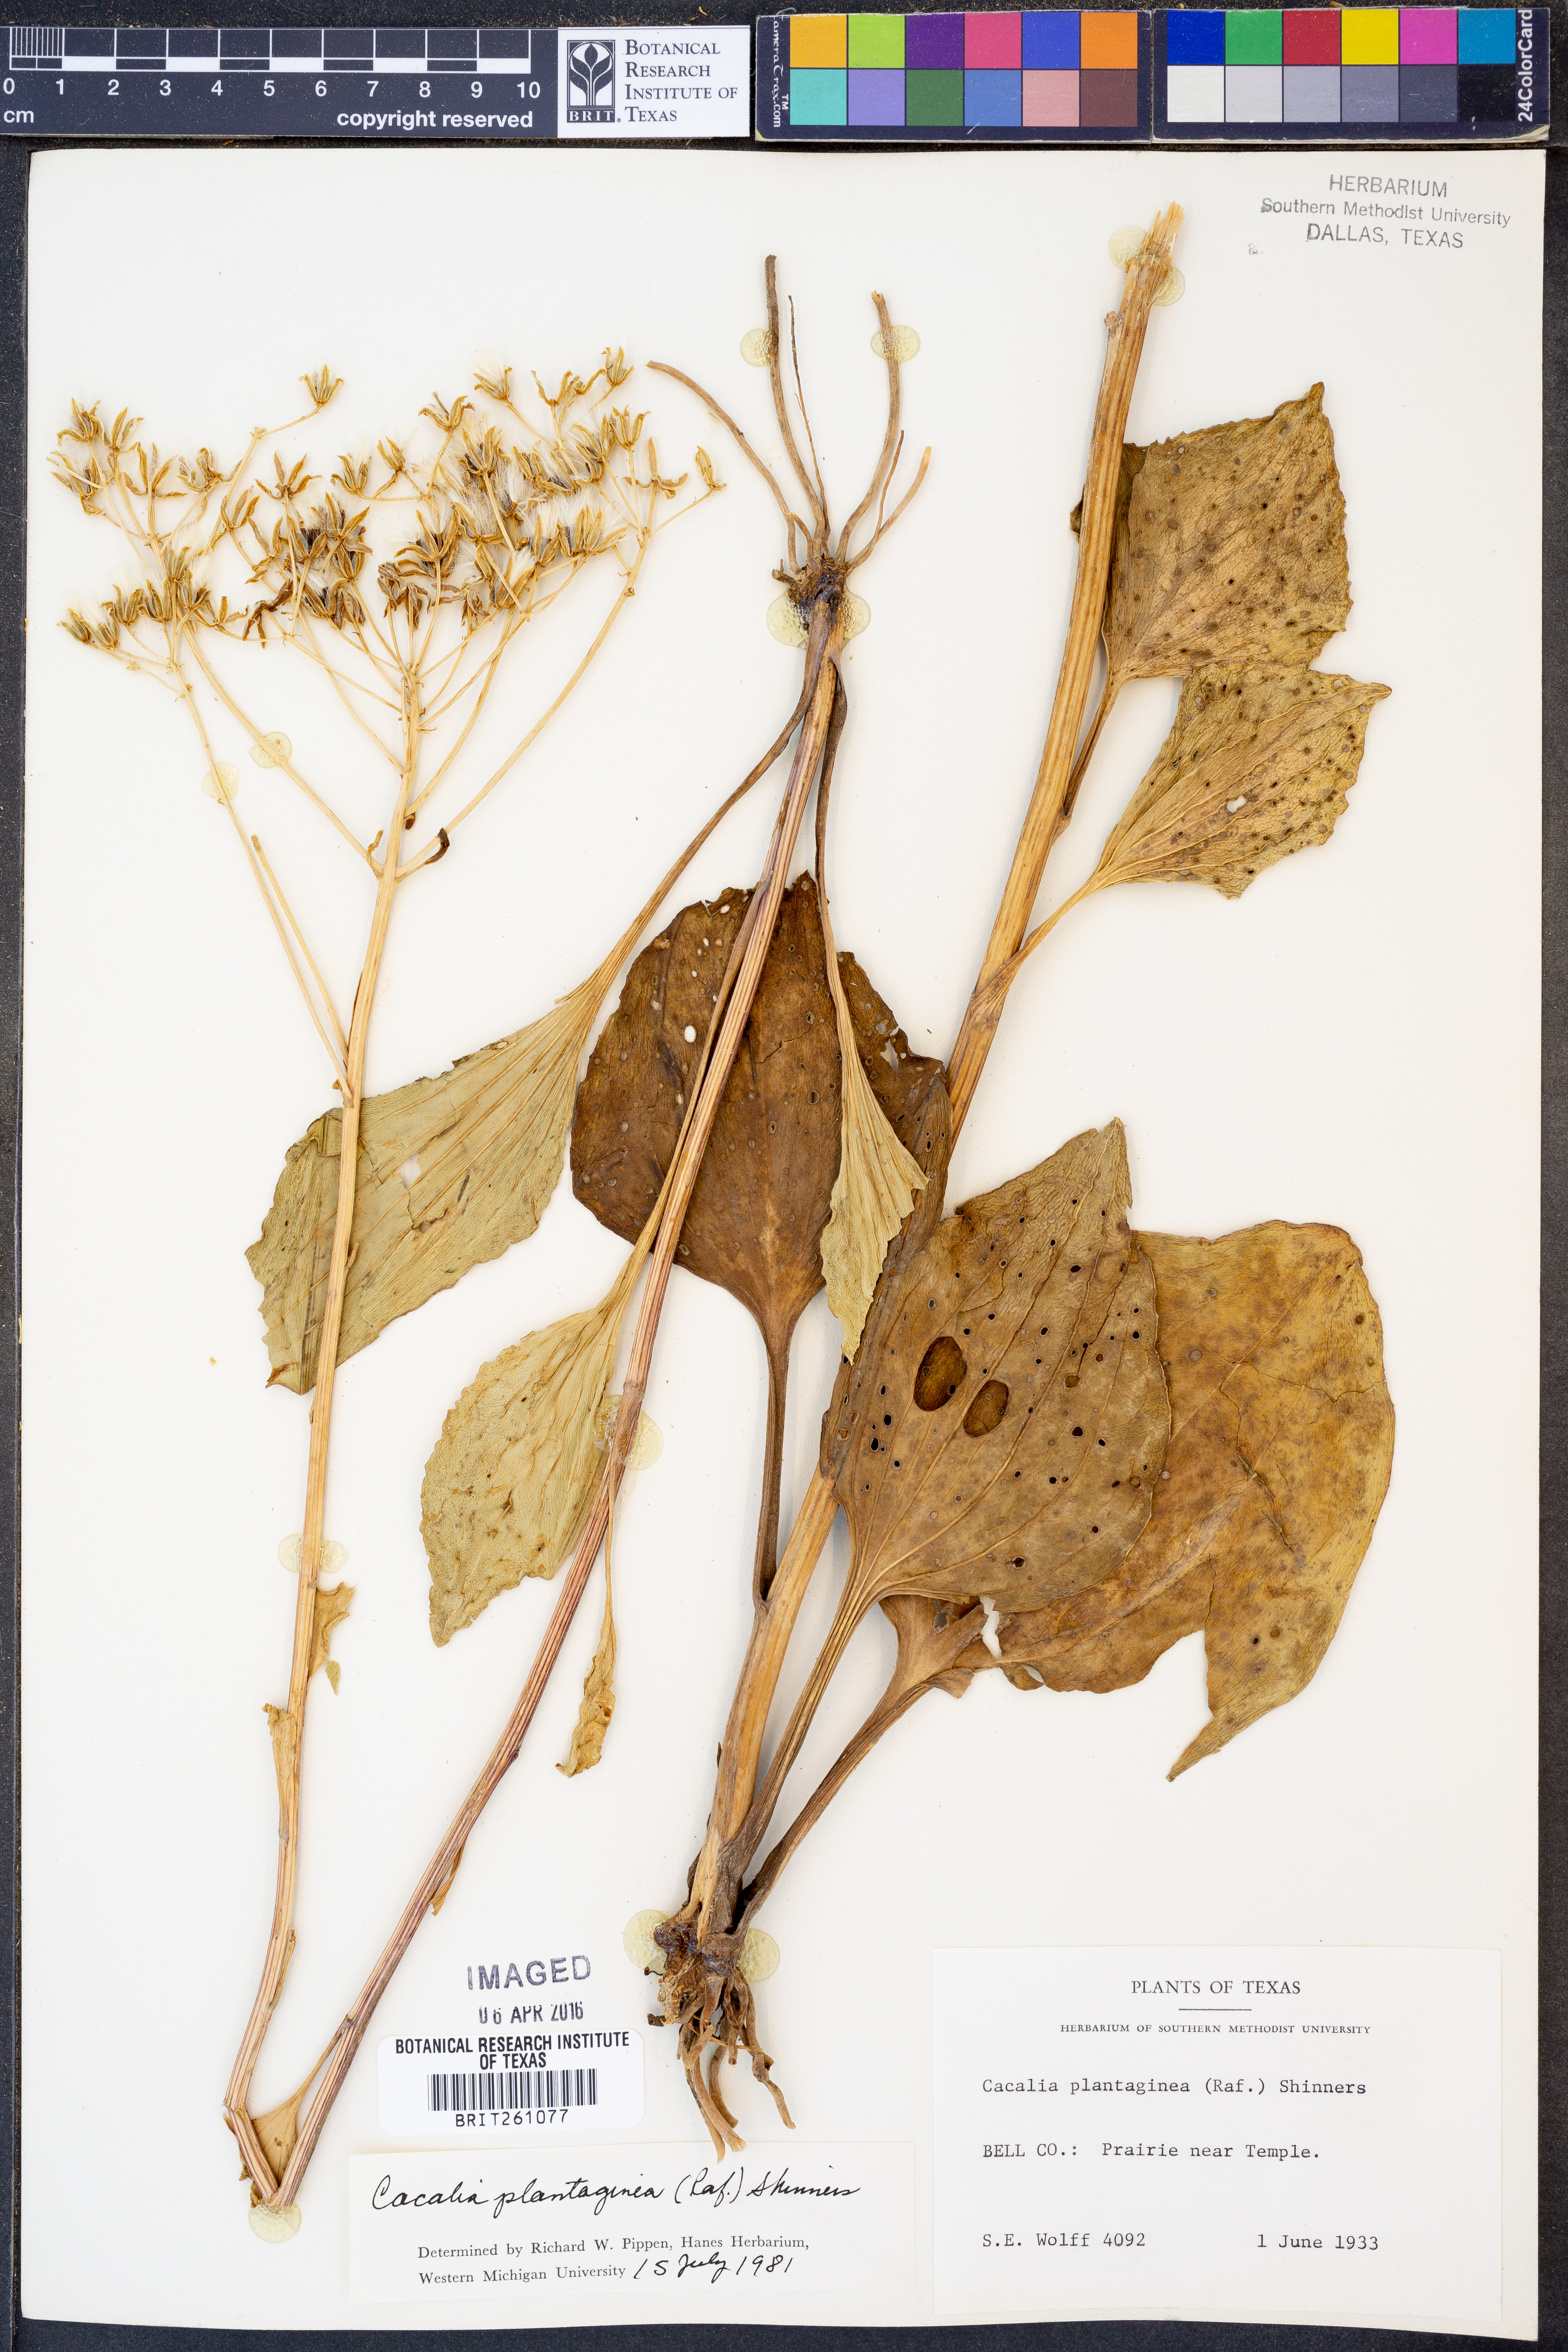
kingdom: Plantae
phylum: Tracheophyta
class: Magnoliopsida
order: Asterales
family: Asteraceae
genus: Arnoglossum
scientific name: Arnoglossum plantagineum
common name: Groove-stemmed indian-plantain
